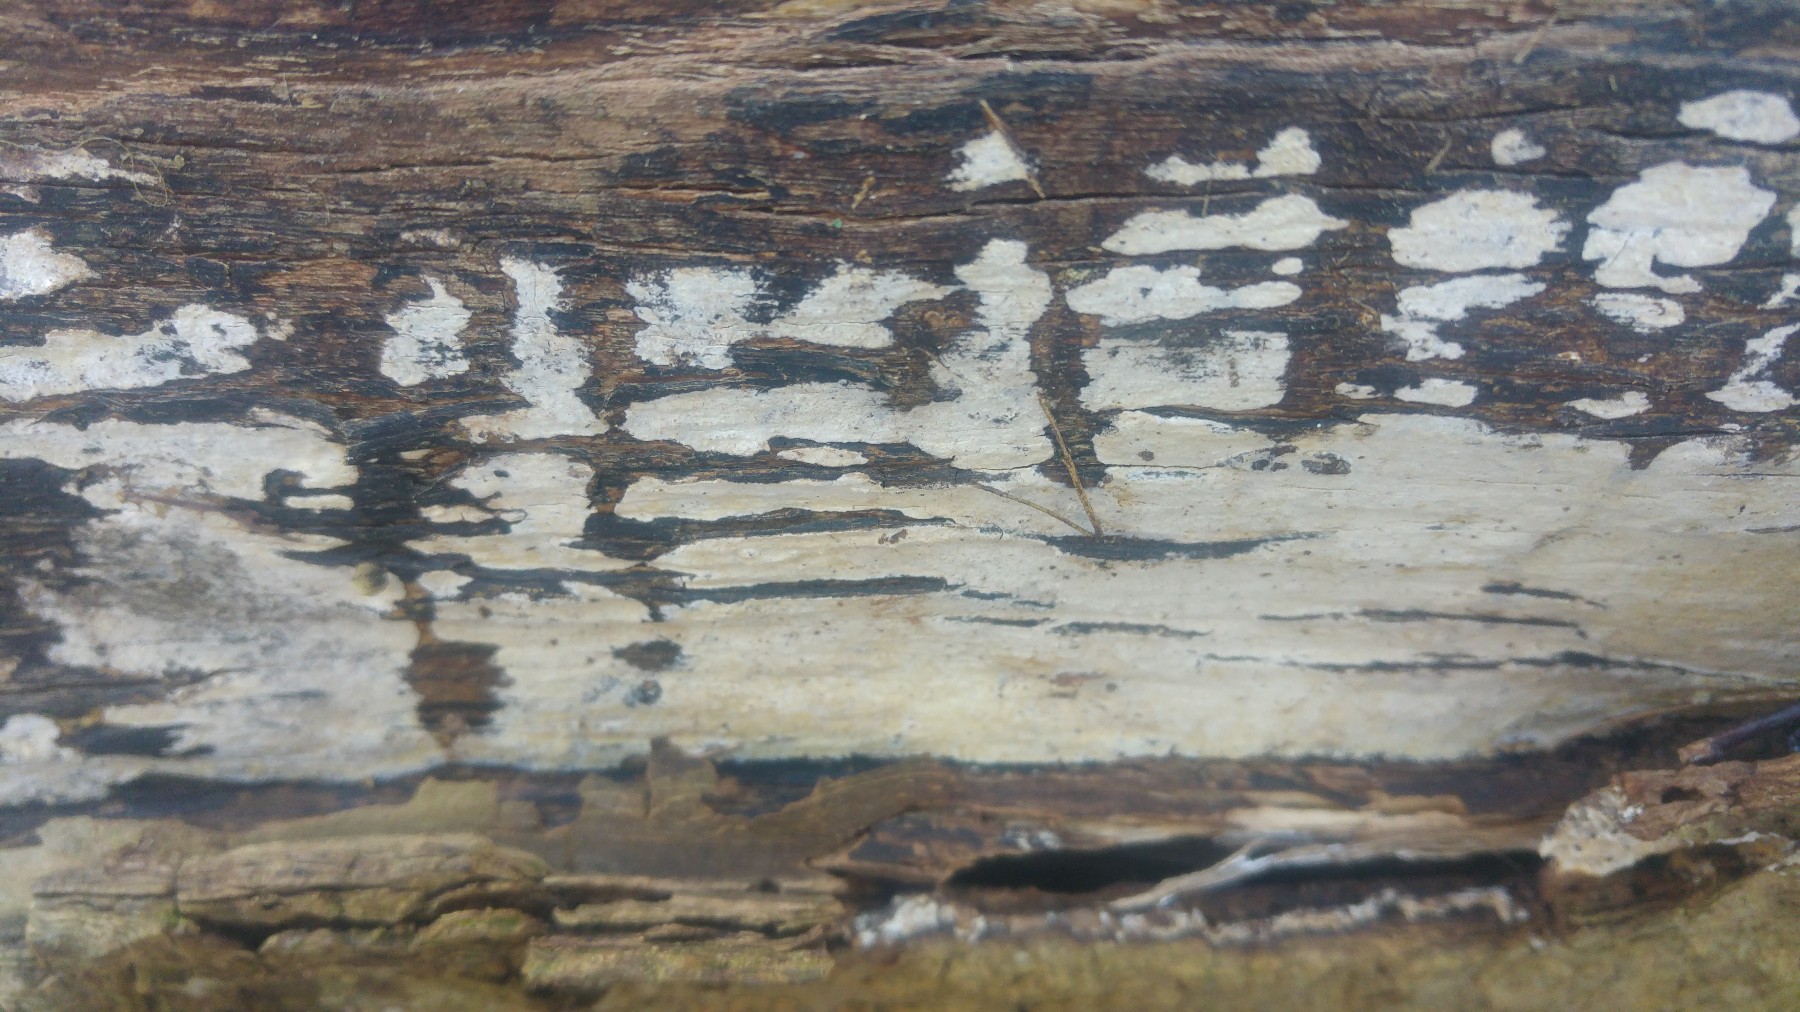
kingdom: Fungi
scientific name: Fungi
